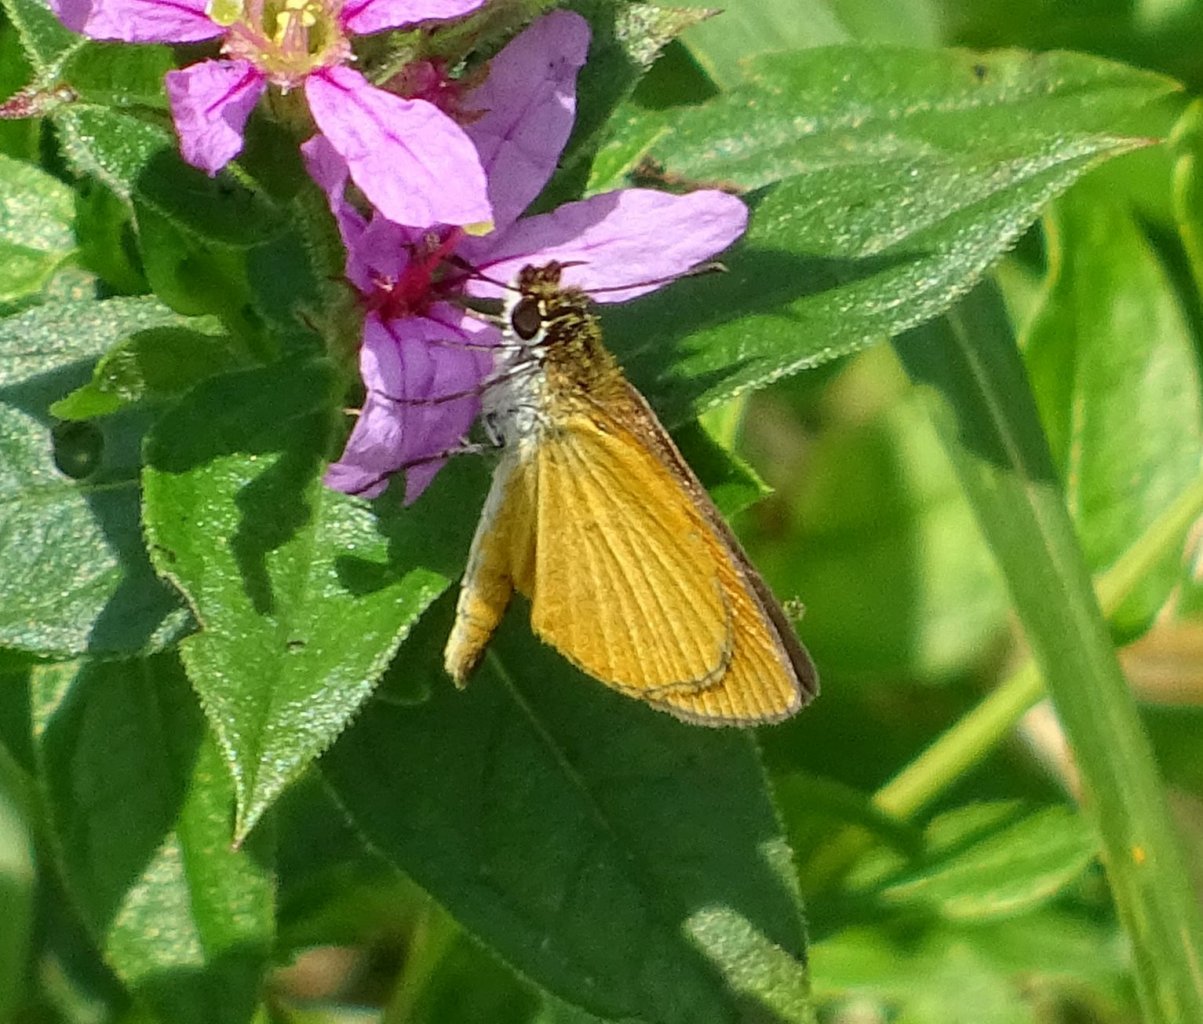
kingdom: Animalia
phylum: Arthropoda
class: Insecta
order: Lepidoptera
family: Hesperiidae
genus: Ancyloxypha
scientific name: Ancyloxypha numitor
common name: Least Skipper
